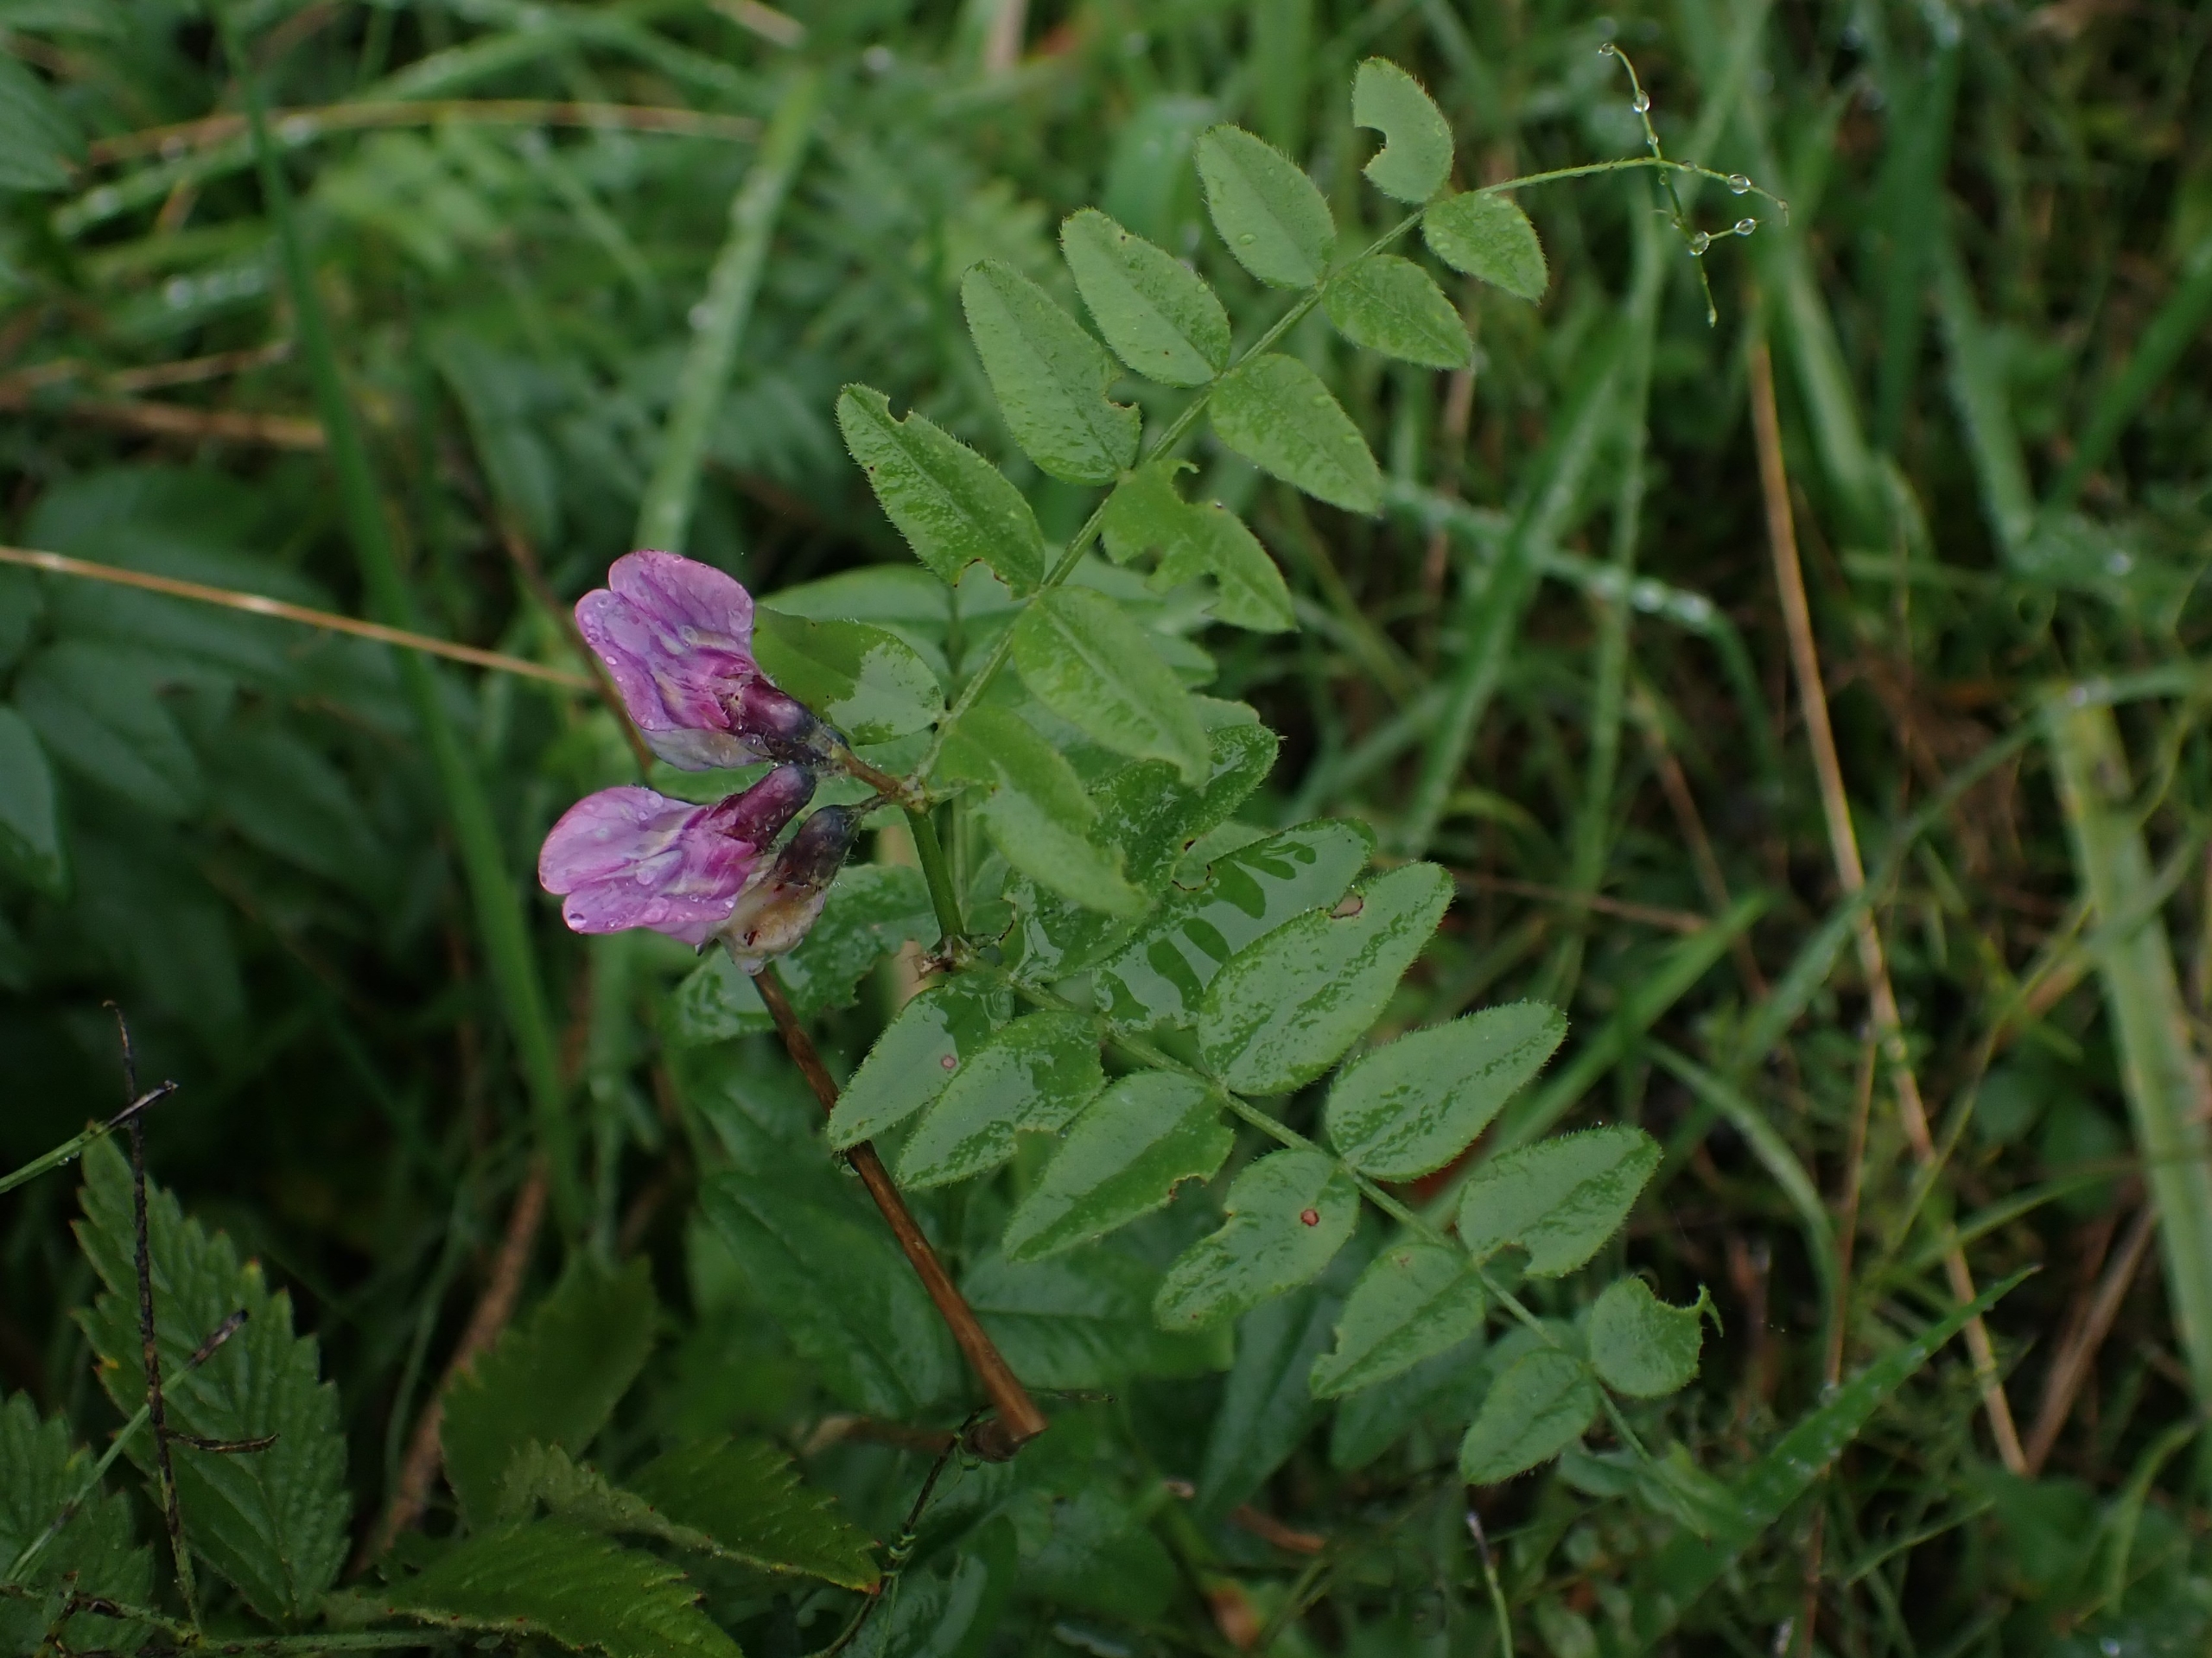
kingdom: Plantae
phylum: Tracheophyta
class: Magnoliopsida
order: Fabales
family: Fabaceae
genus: Vicia
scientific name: Vicia sepium
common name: Gærde-vikke
